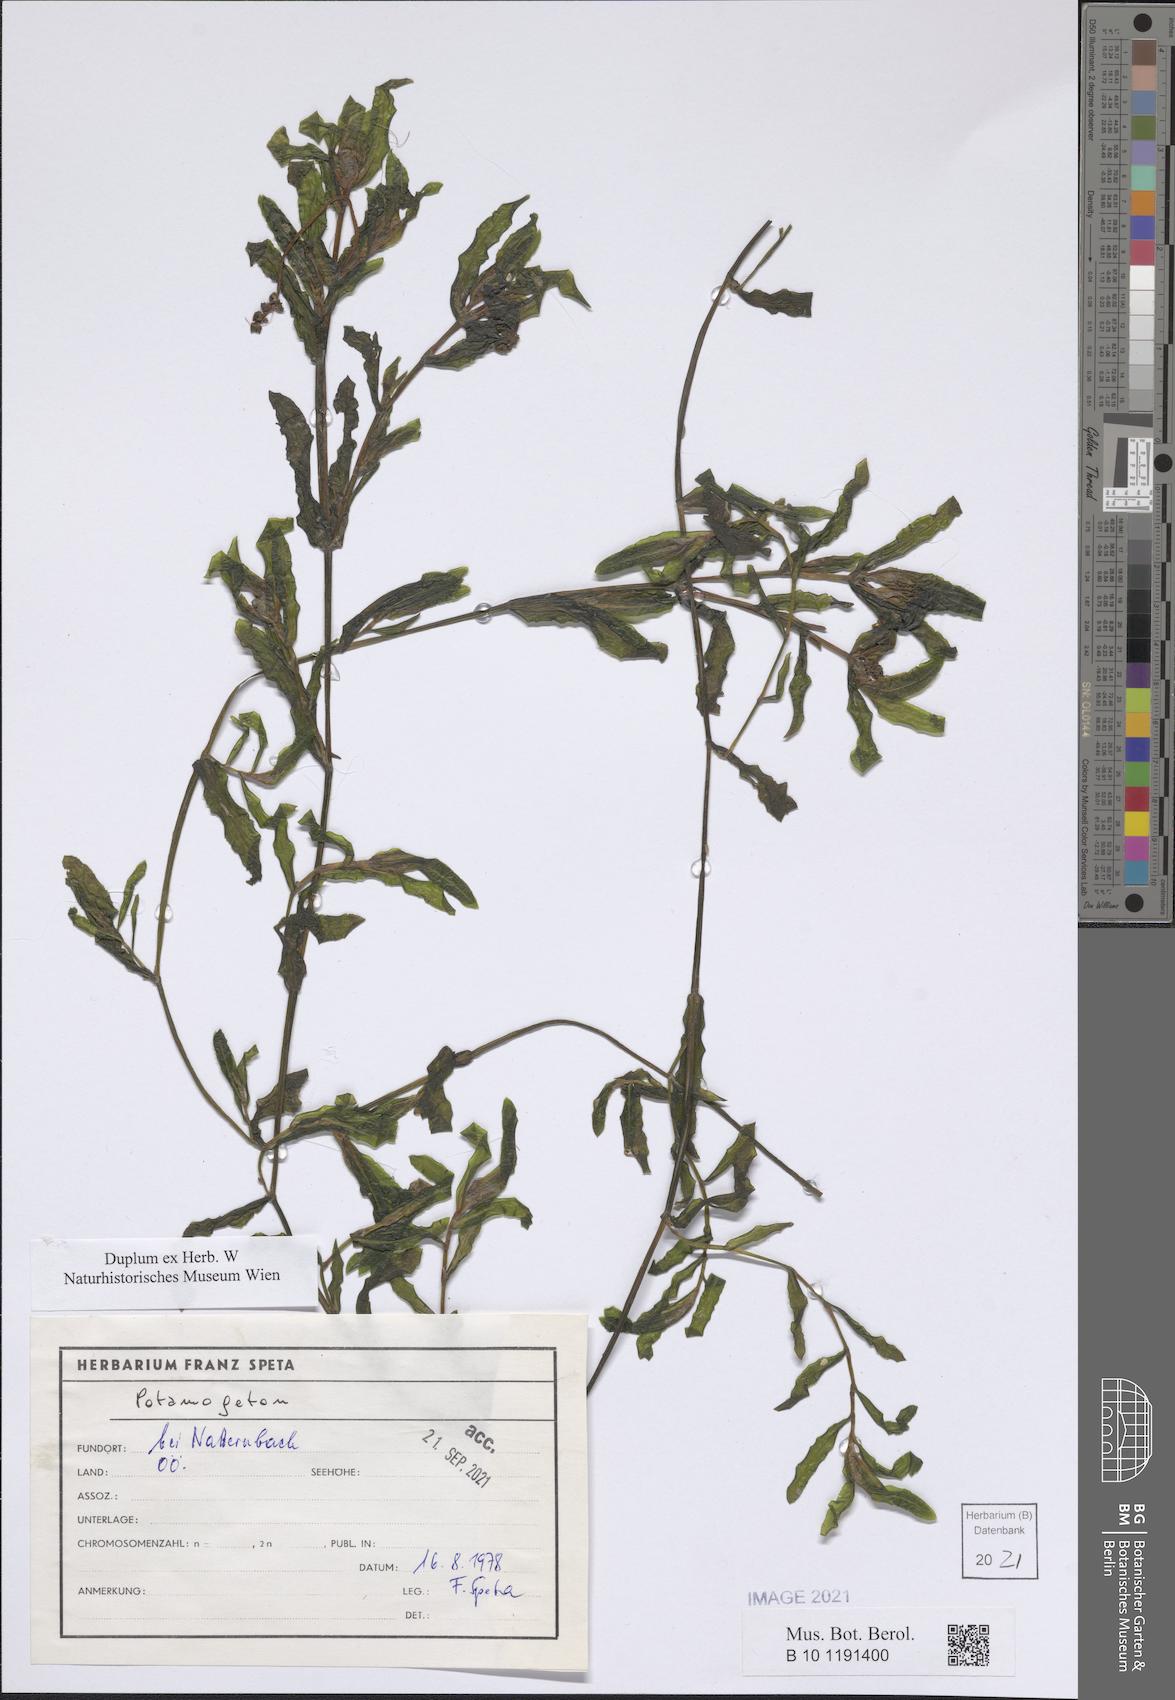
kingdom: Plantae
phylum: Tracheophyta
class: Liliopsida
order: Alismatales
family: Potamogetonaceae
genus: Potamogeton
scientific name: Potamogeton
